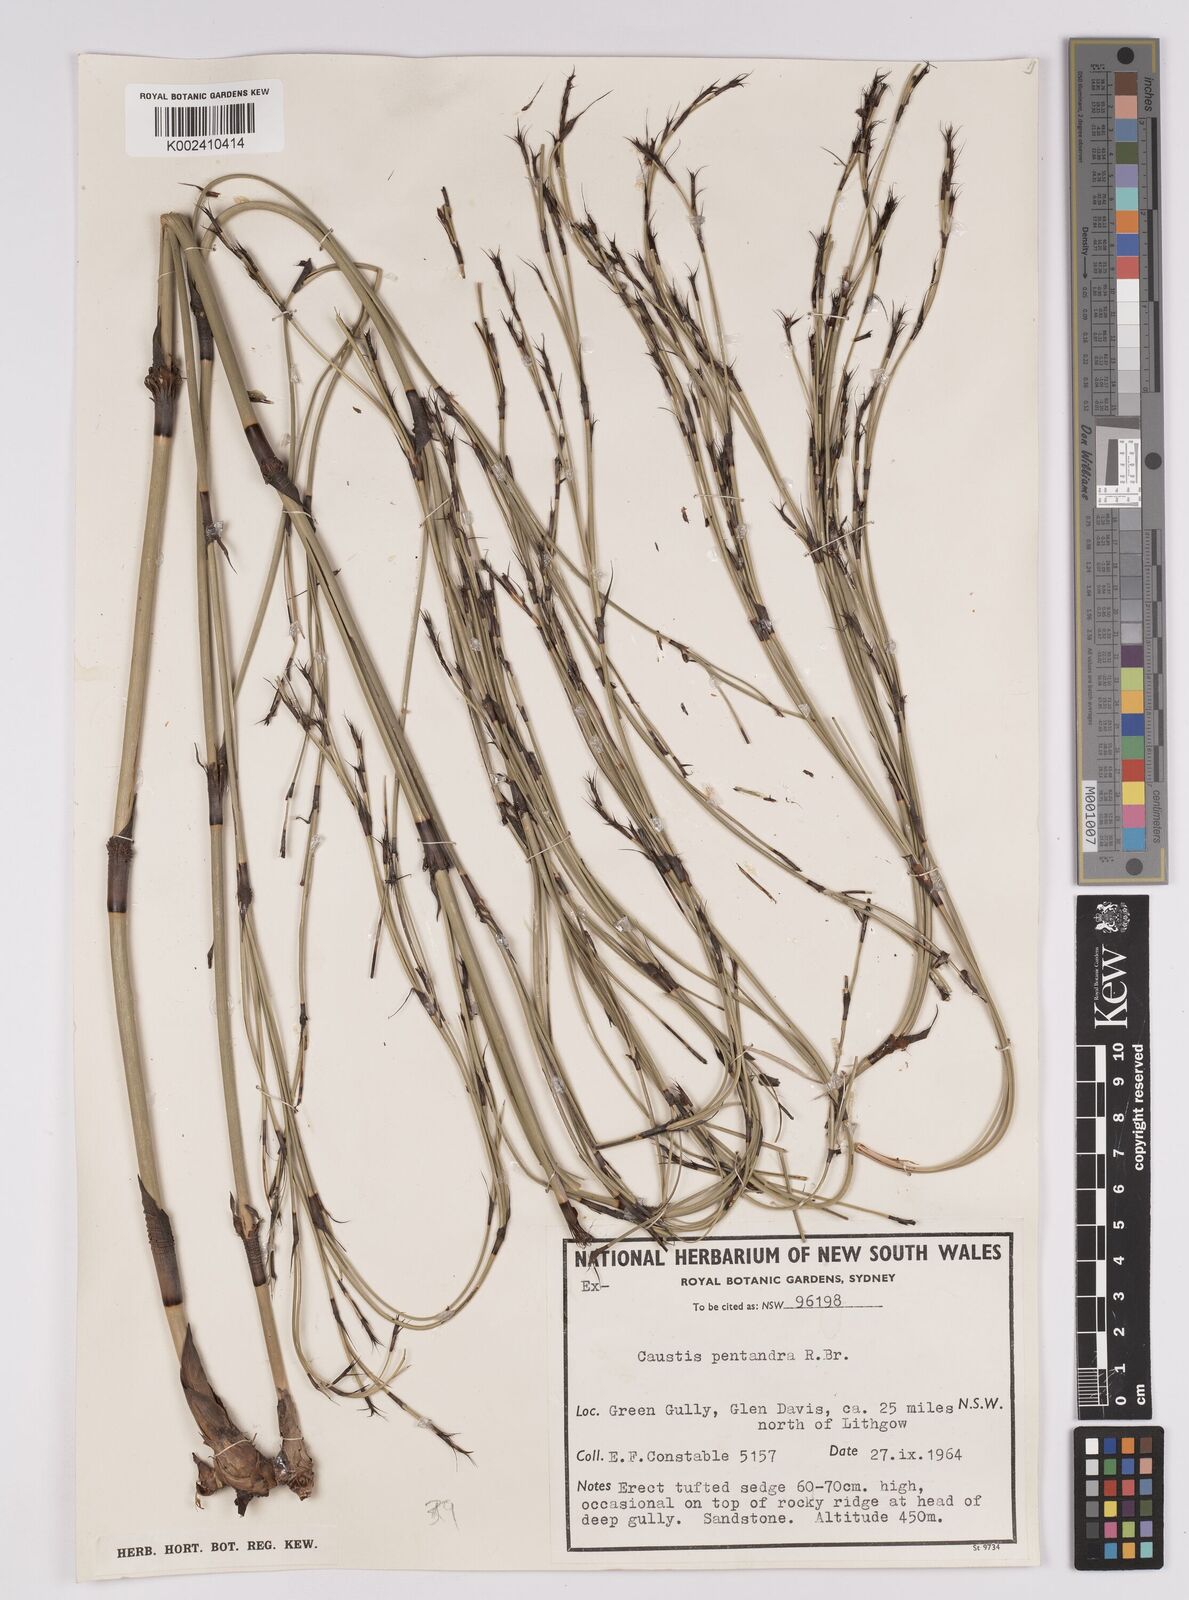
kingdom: Plantae
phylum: Tracheophyta
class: Liliopsida
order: Poales
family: Cyperaceae
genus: Caustis
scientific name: Caustis pentandra
